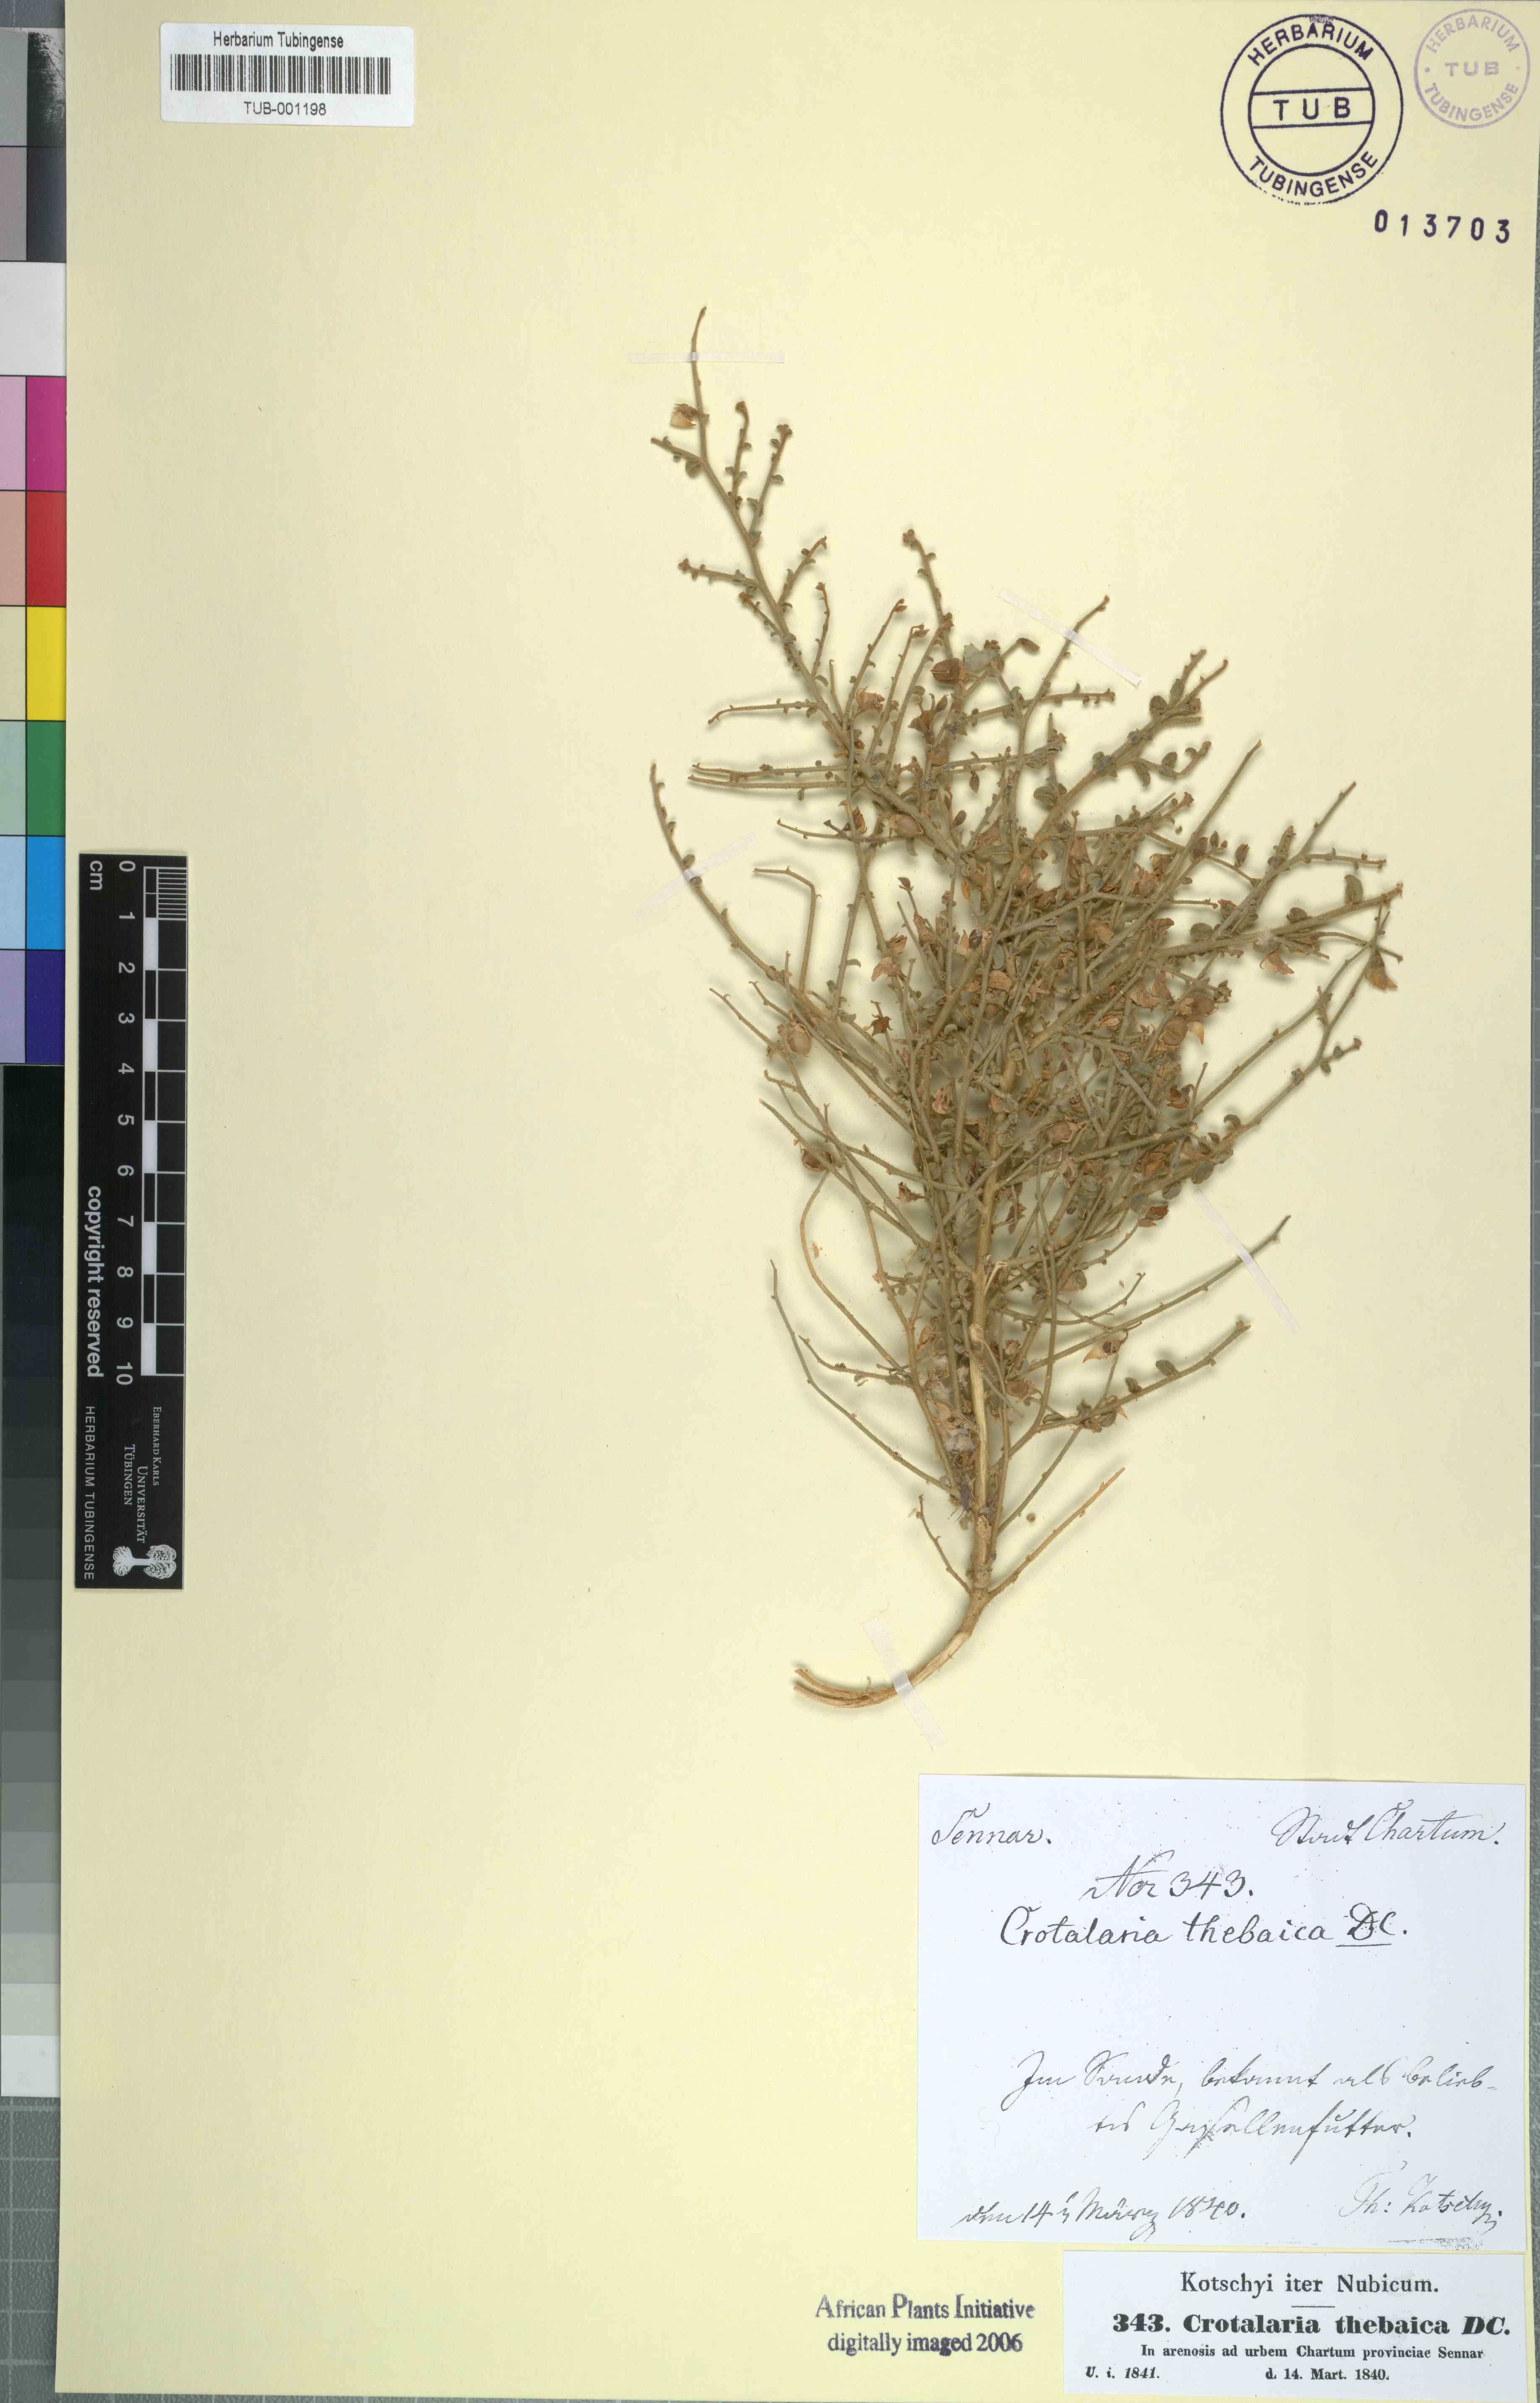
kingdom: Plantae
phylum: Tracheophyta
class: Magnoliopsida
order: Fabales
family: Fabaceae
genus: Crotalaria
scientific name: Crotalaria thebaica
